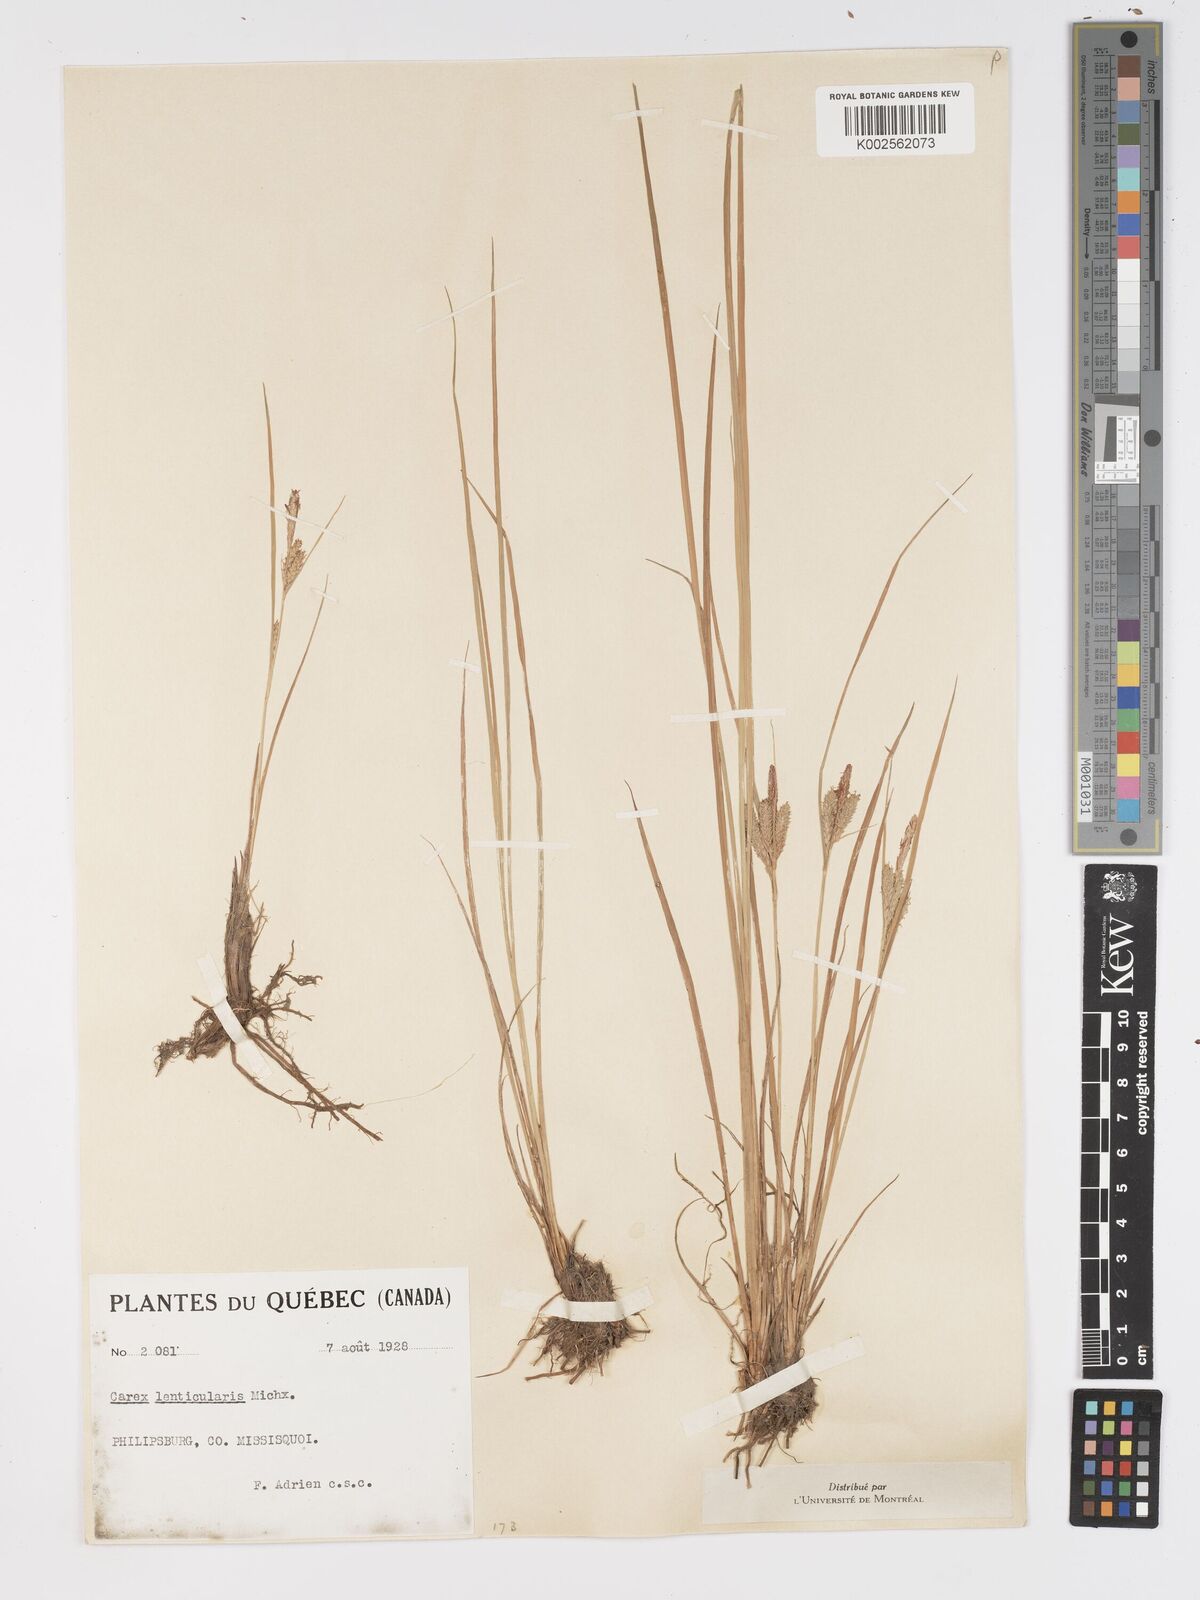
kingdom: Plantae
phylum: Tracheophyta
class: Liliopsida
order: Poales
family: Cyperaceae
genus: Carex
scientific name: Carex lenticularis
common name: Lakeshore sedge
